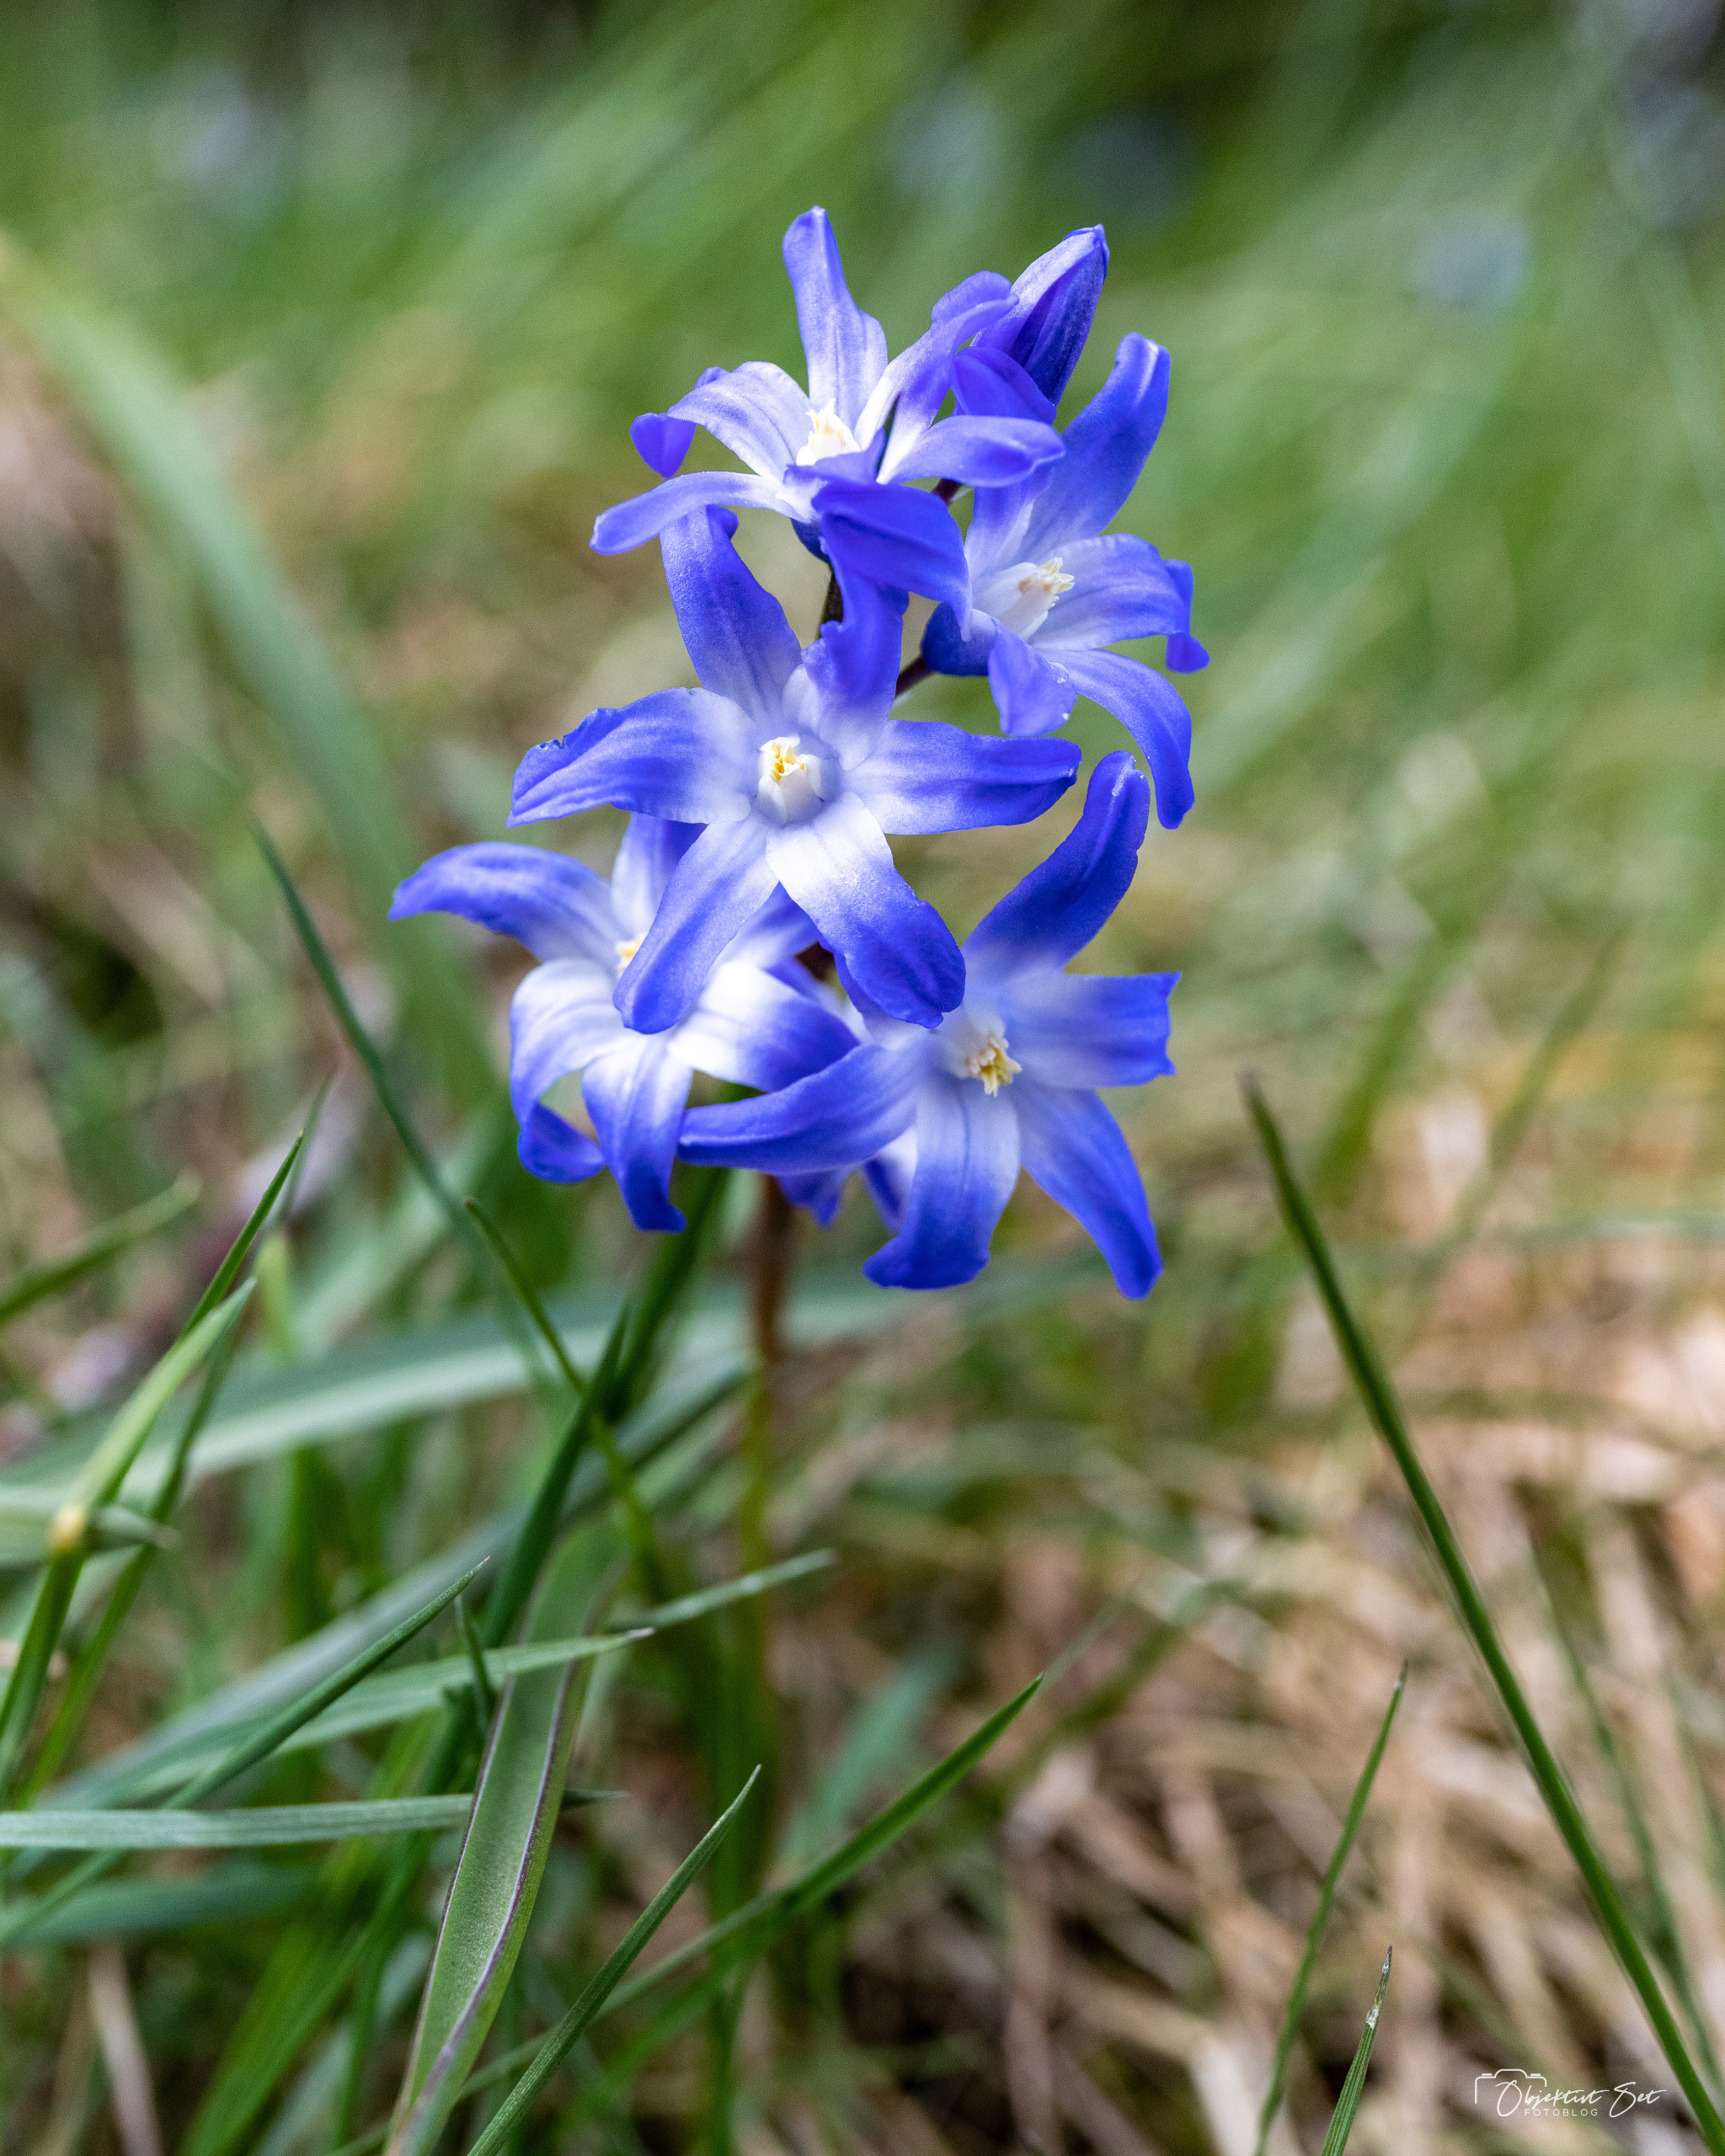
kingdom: Plantae
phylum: Tracheophyta
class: Liliopsida
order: Asparagales
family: Asparagaceae
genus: Scilla
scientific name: Scilla forbesii
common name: Almindelig snepryd
